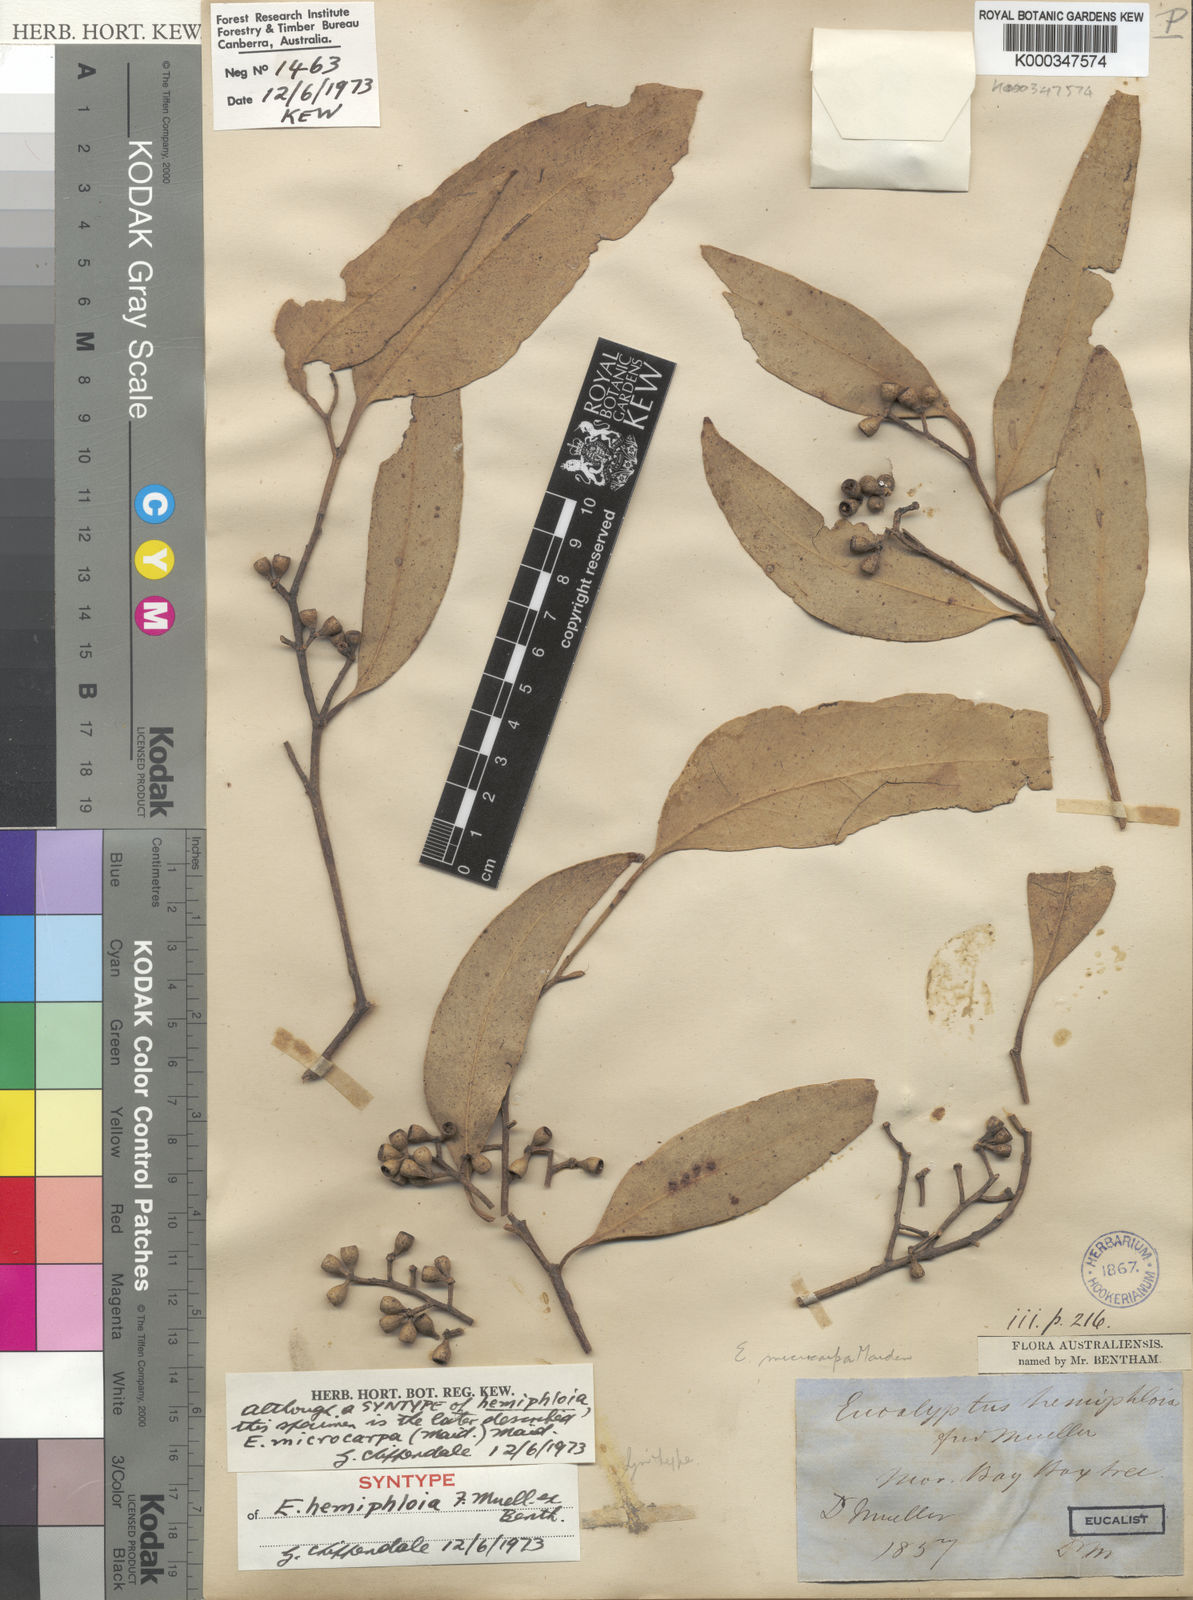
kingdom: Plantae
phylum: Tracheophyta
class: Magnoliopsida
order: Myrtales
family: Myrtaceae
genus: Eucalyptus
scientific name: Eucalyptus microcarpa
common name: Grey-box
